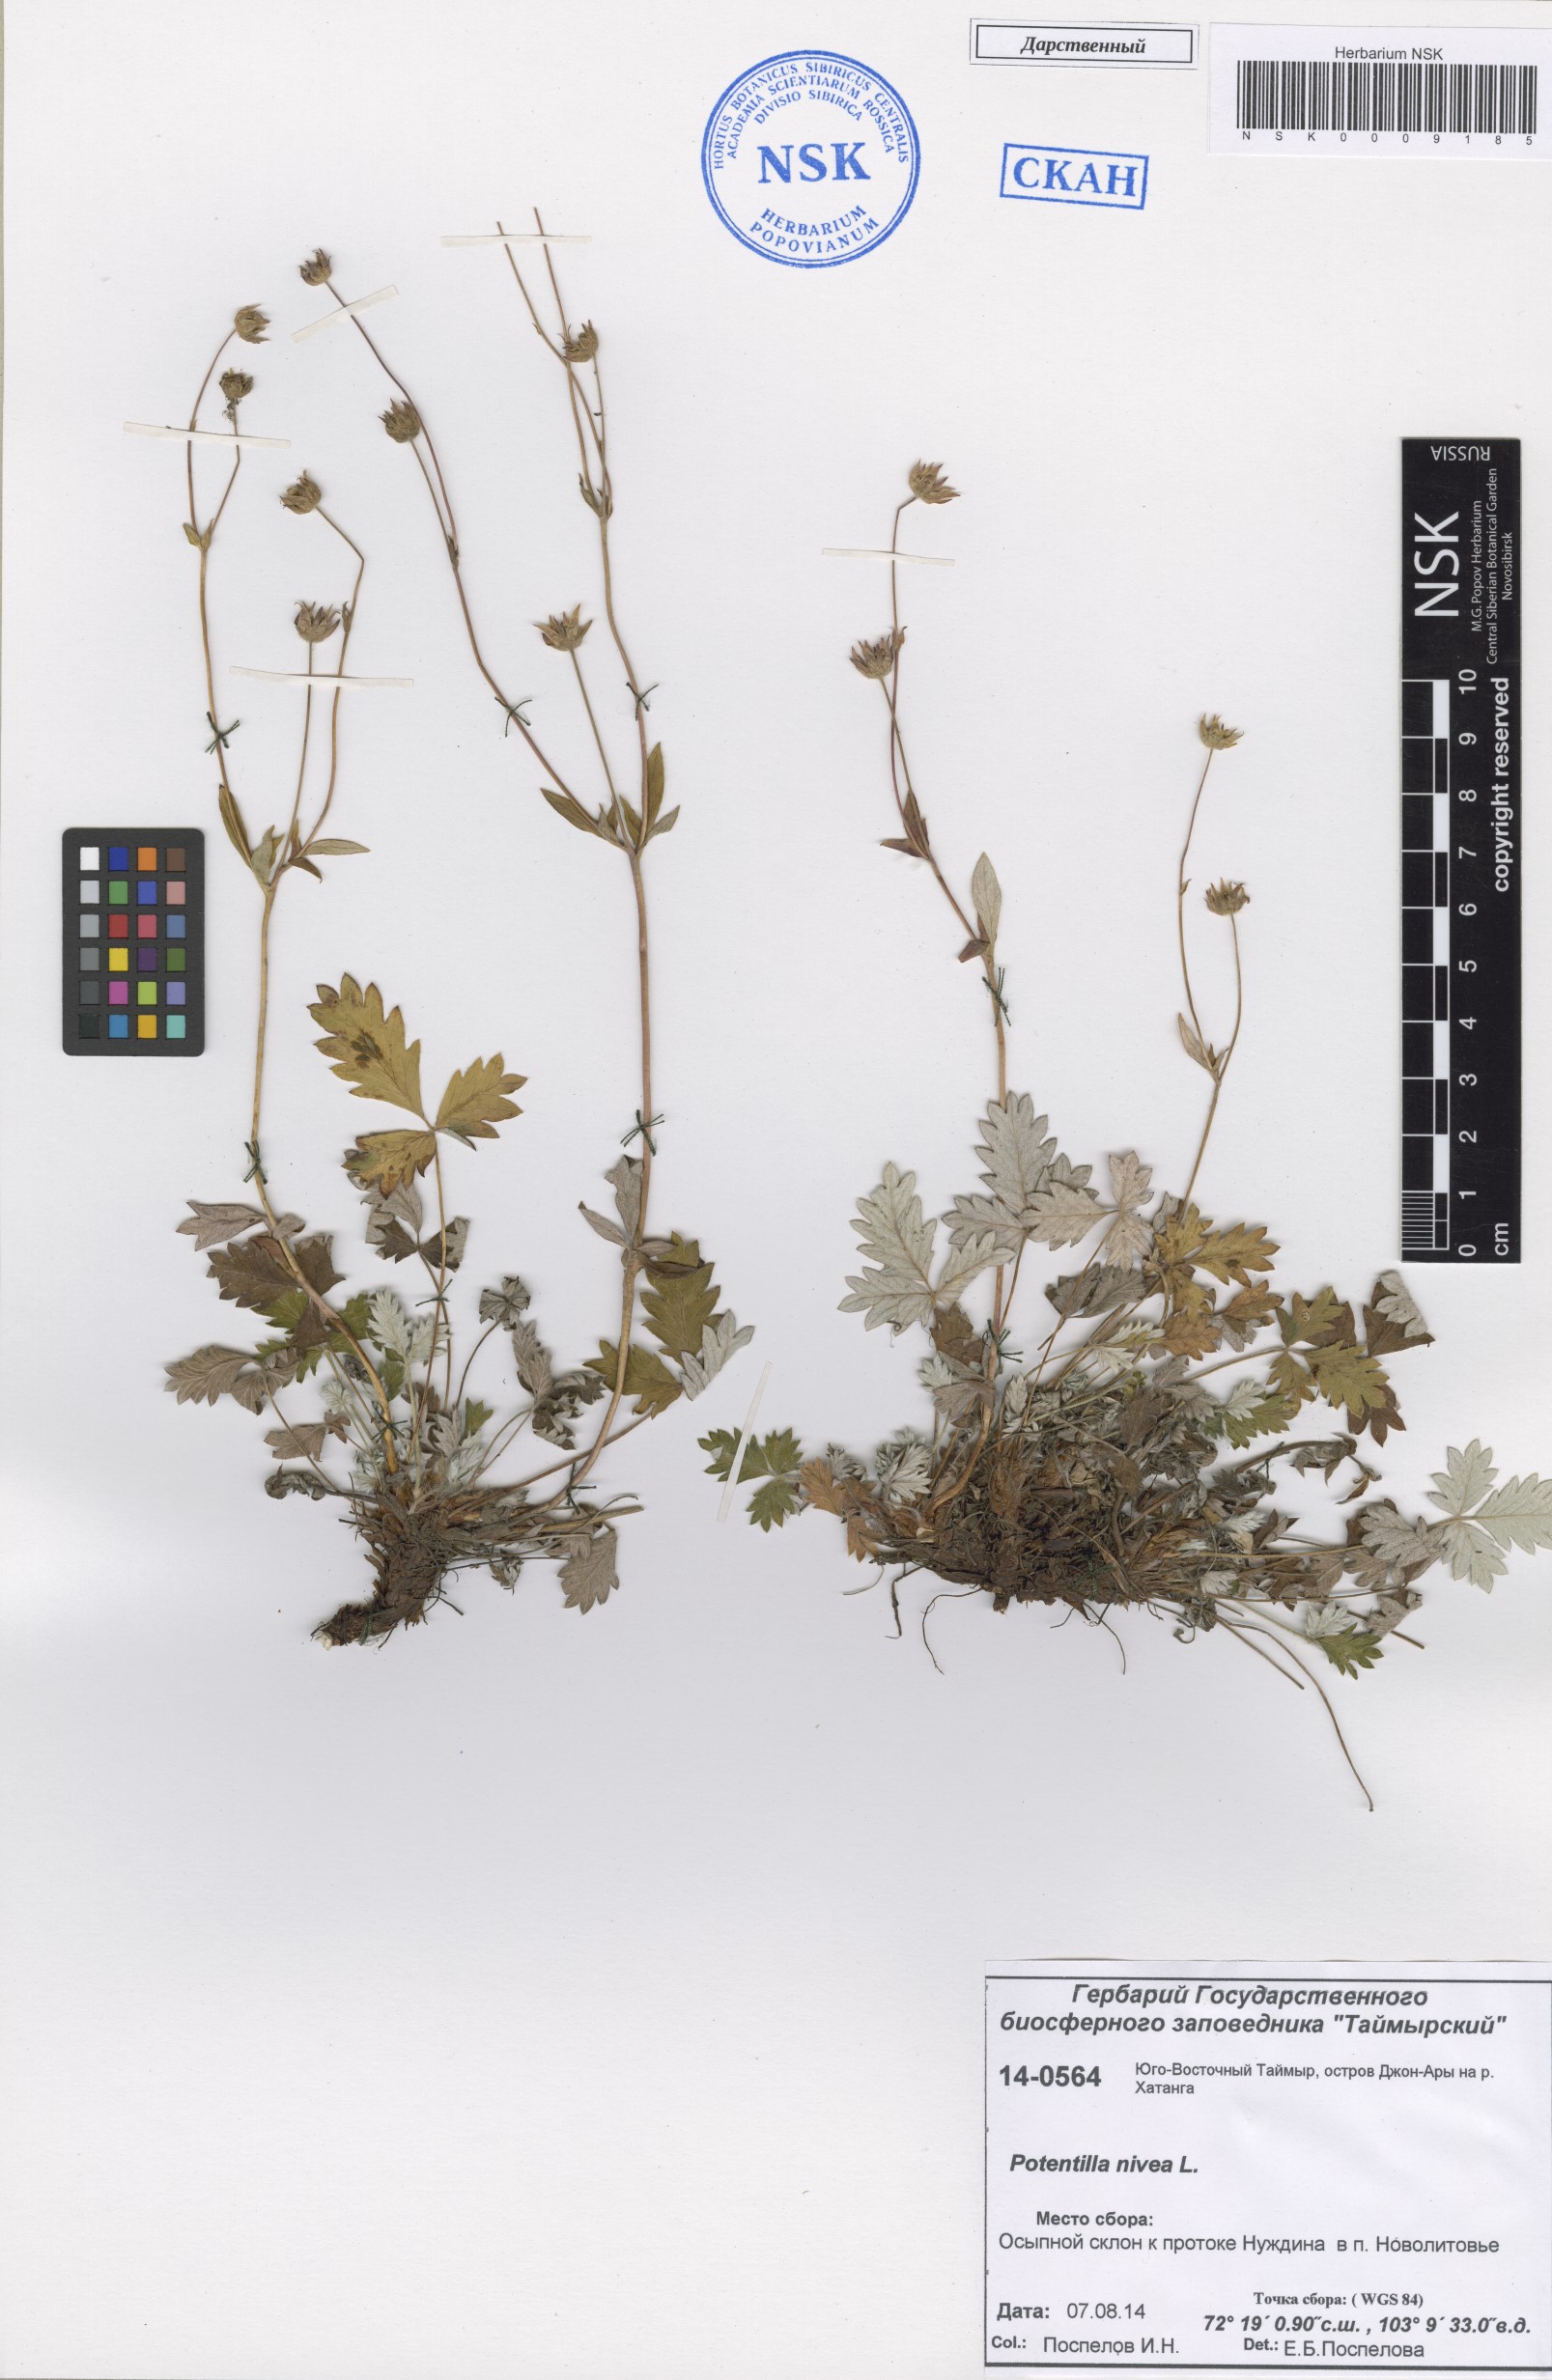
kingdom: Plantae
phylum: Tracheophyta
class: Magnoliopsida
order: Rosales
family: Rosaceae
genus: Potentilla
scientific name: Potentilla nivea
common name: Snow cinquefoil
